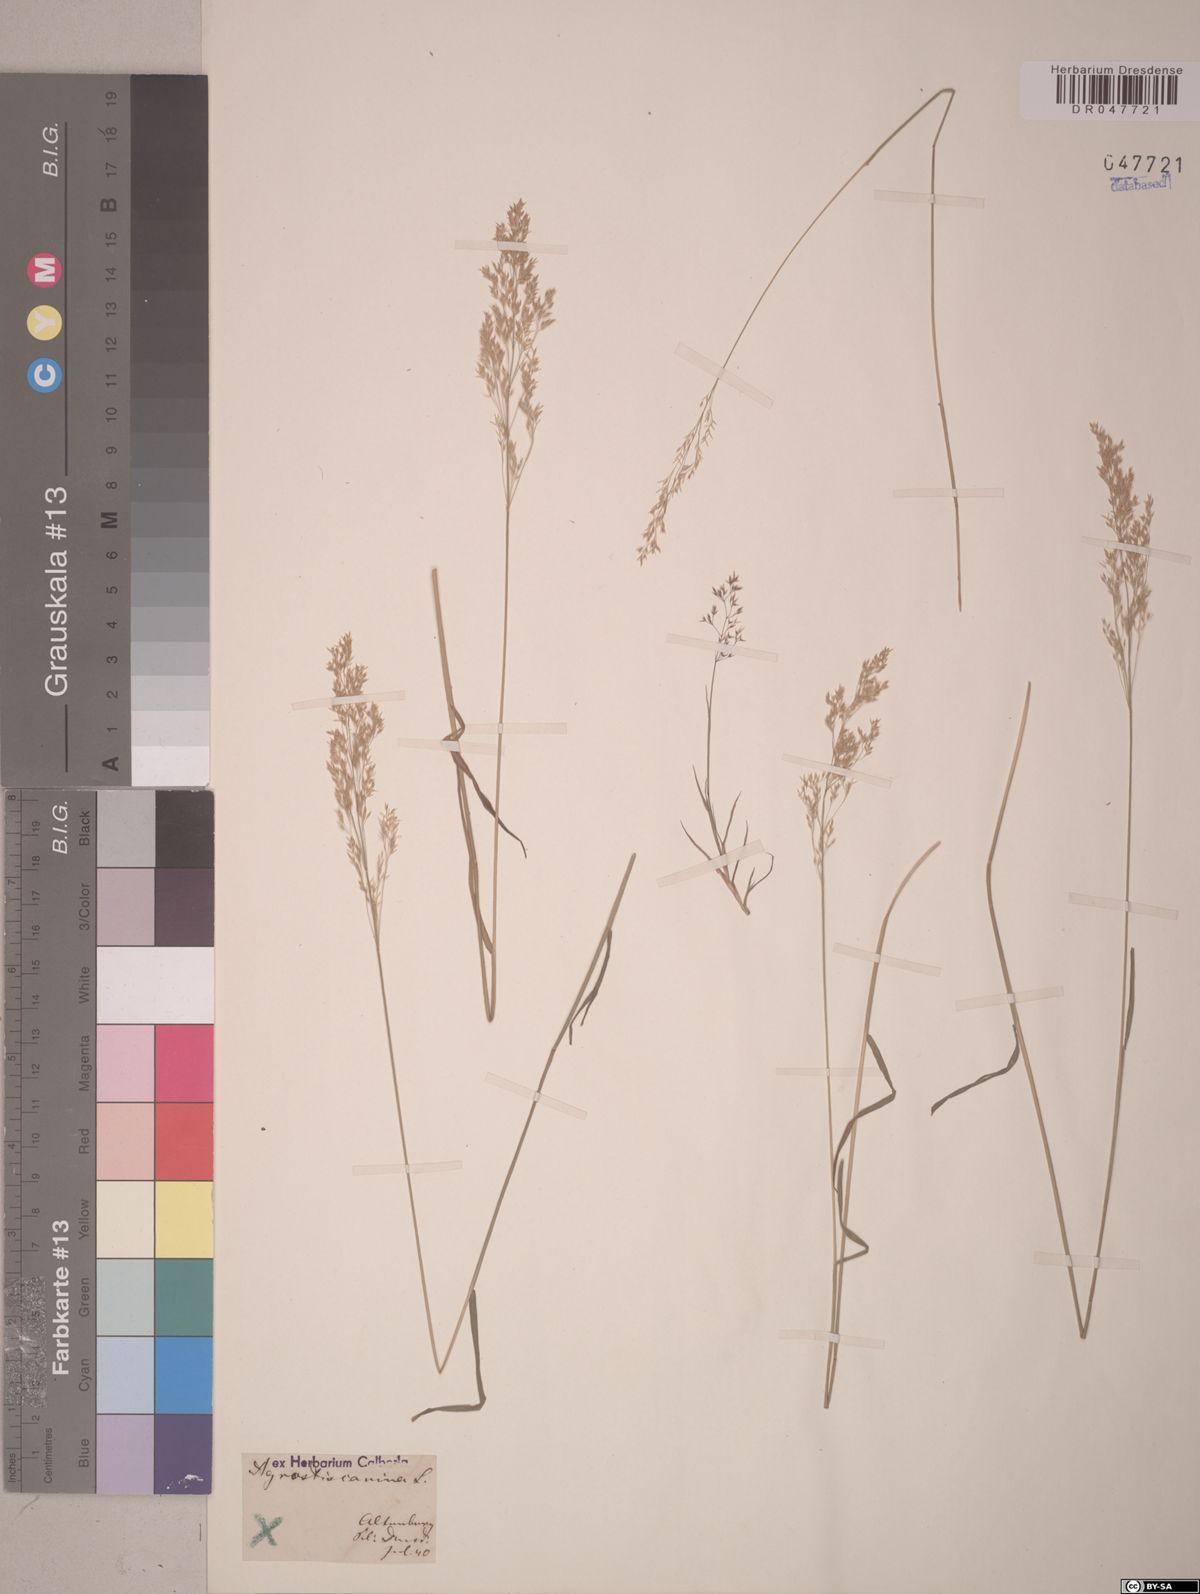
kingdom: Plantae
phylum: Tracheophyta
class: Liliopsida
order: Poales
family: Poaceae
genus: Agrostis
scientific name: Agrostis canina
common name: Velvet bent
